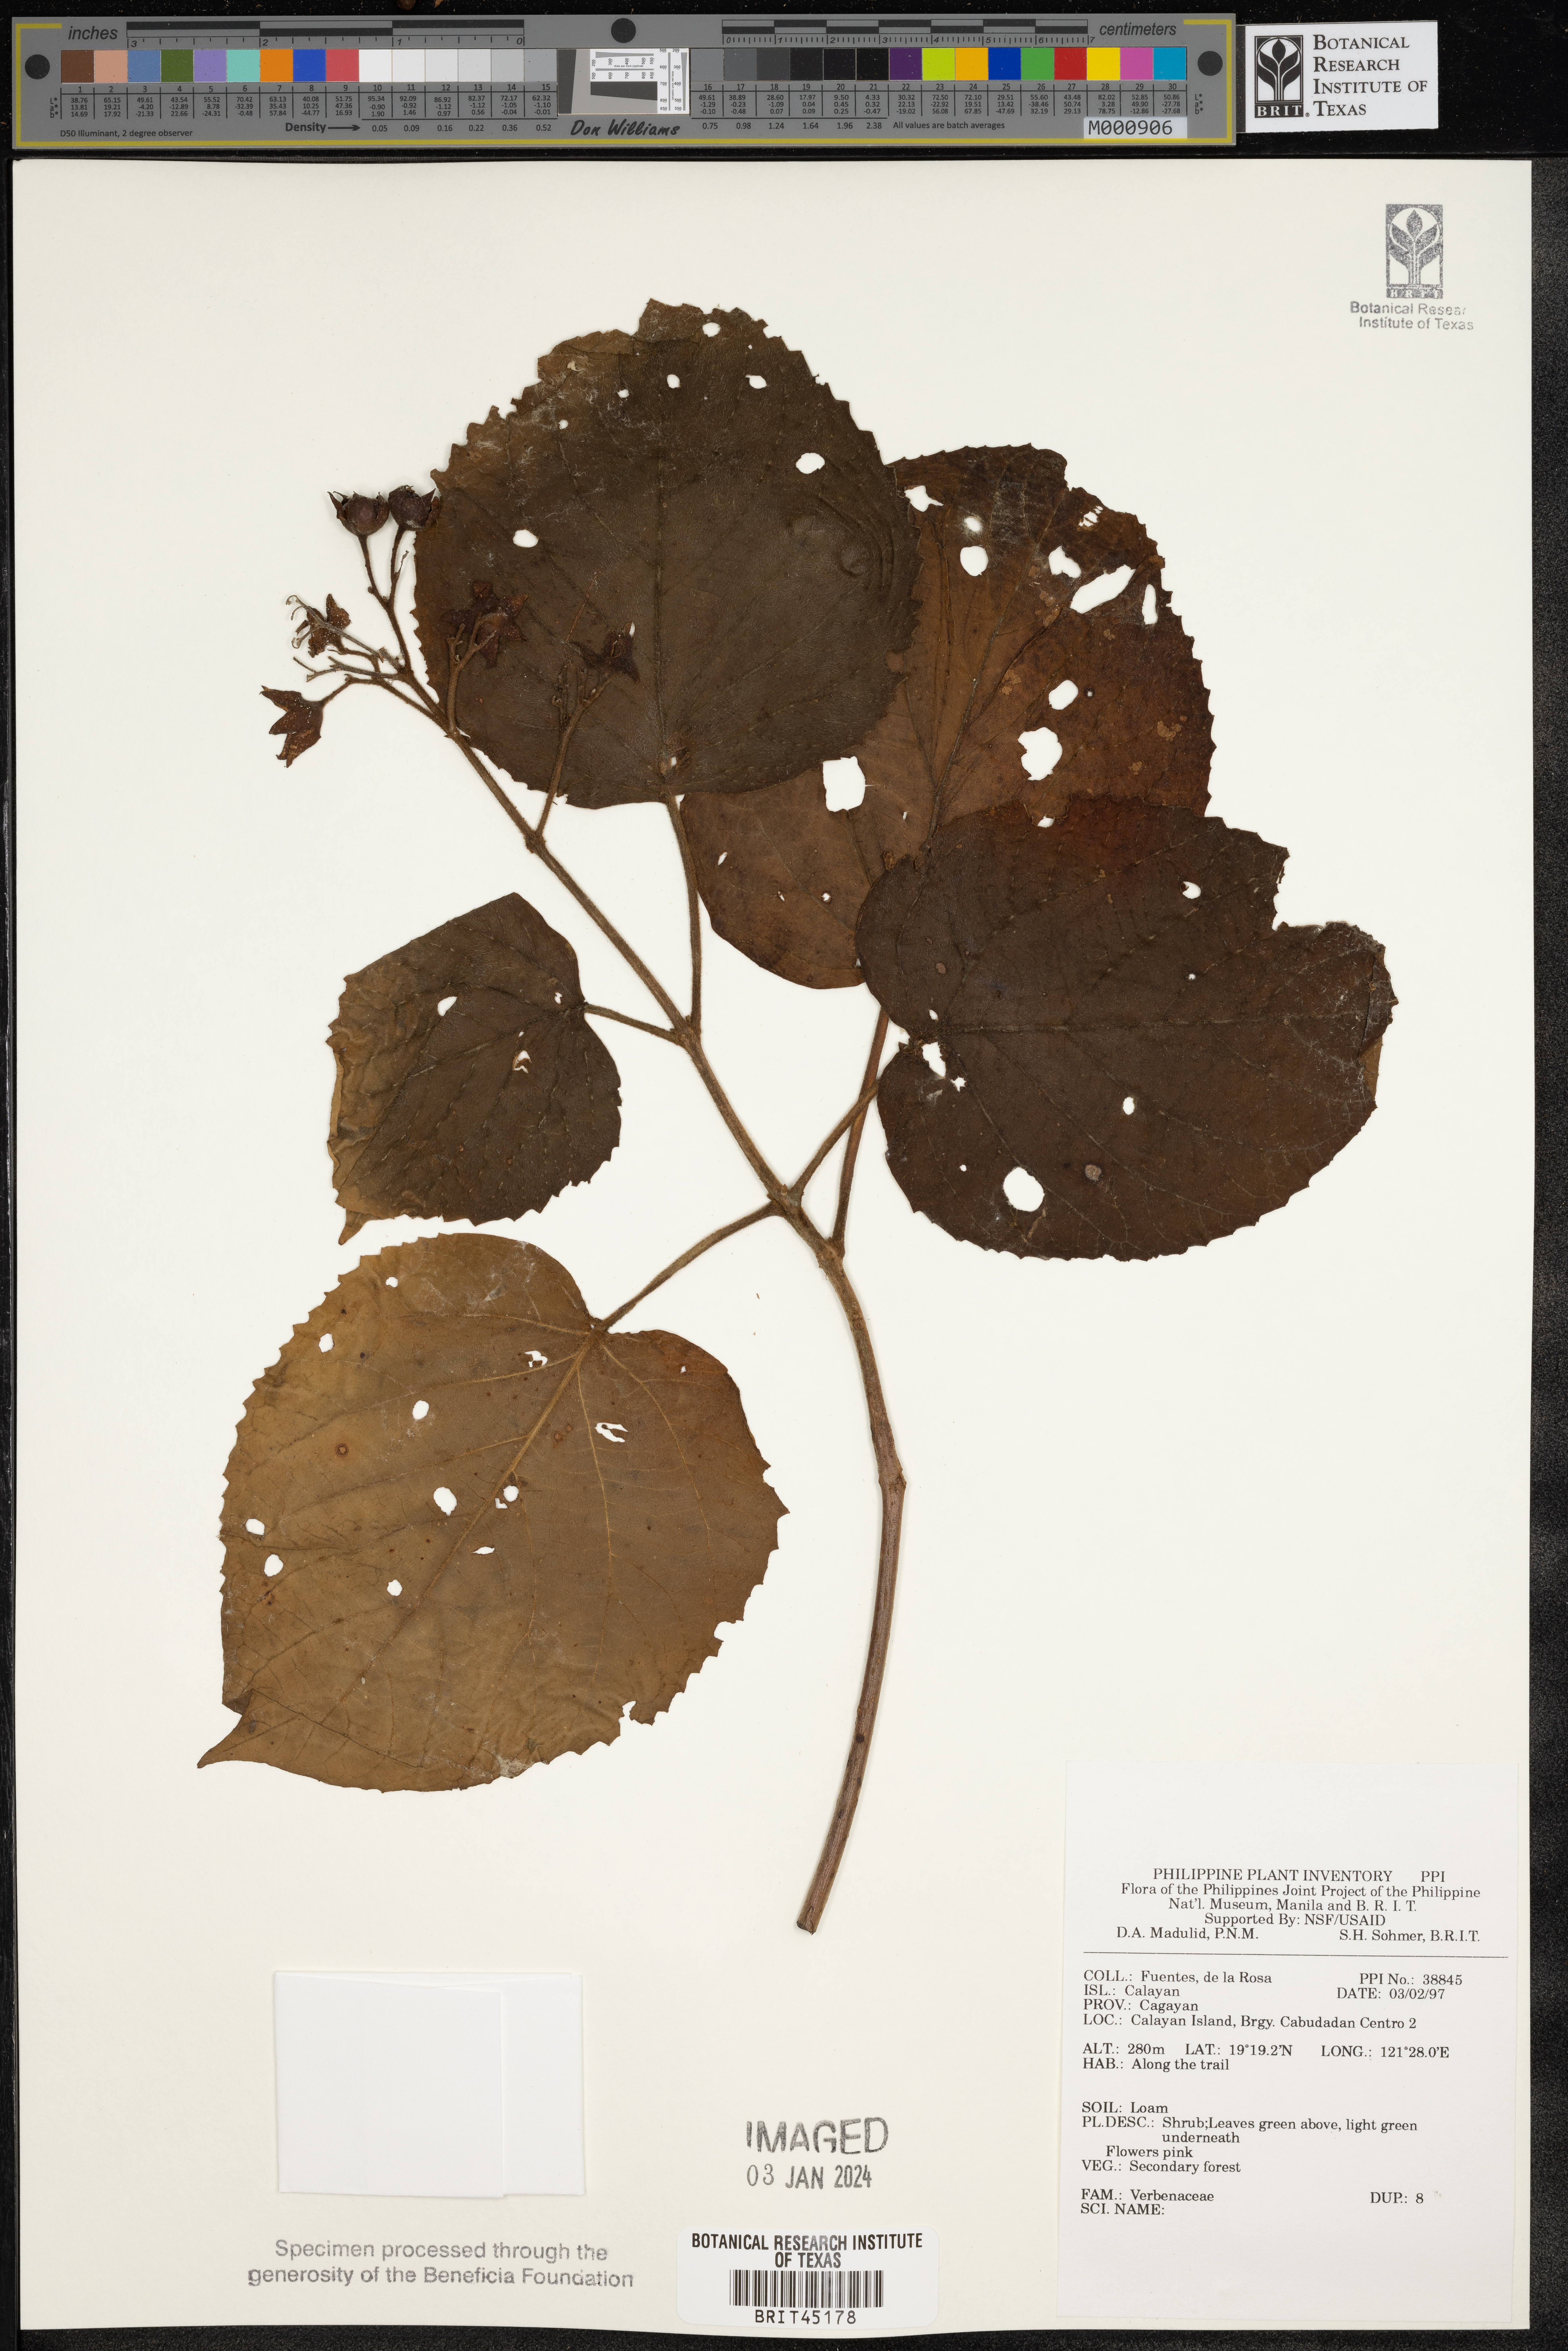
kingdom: Plantae
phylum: Tracheophyta
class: Magnoliopsida
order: Lamiales
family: Verbenaceae
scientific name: Verbenaceae
